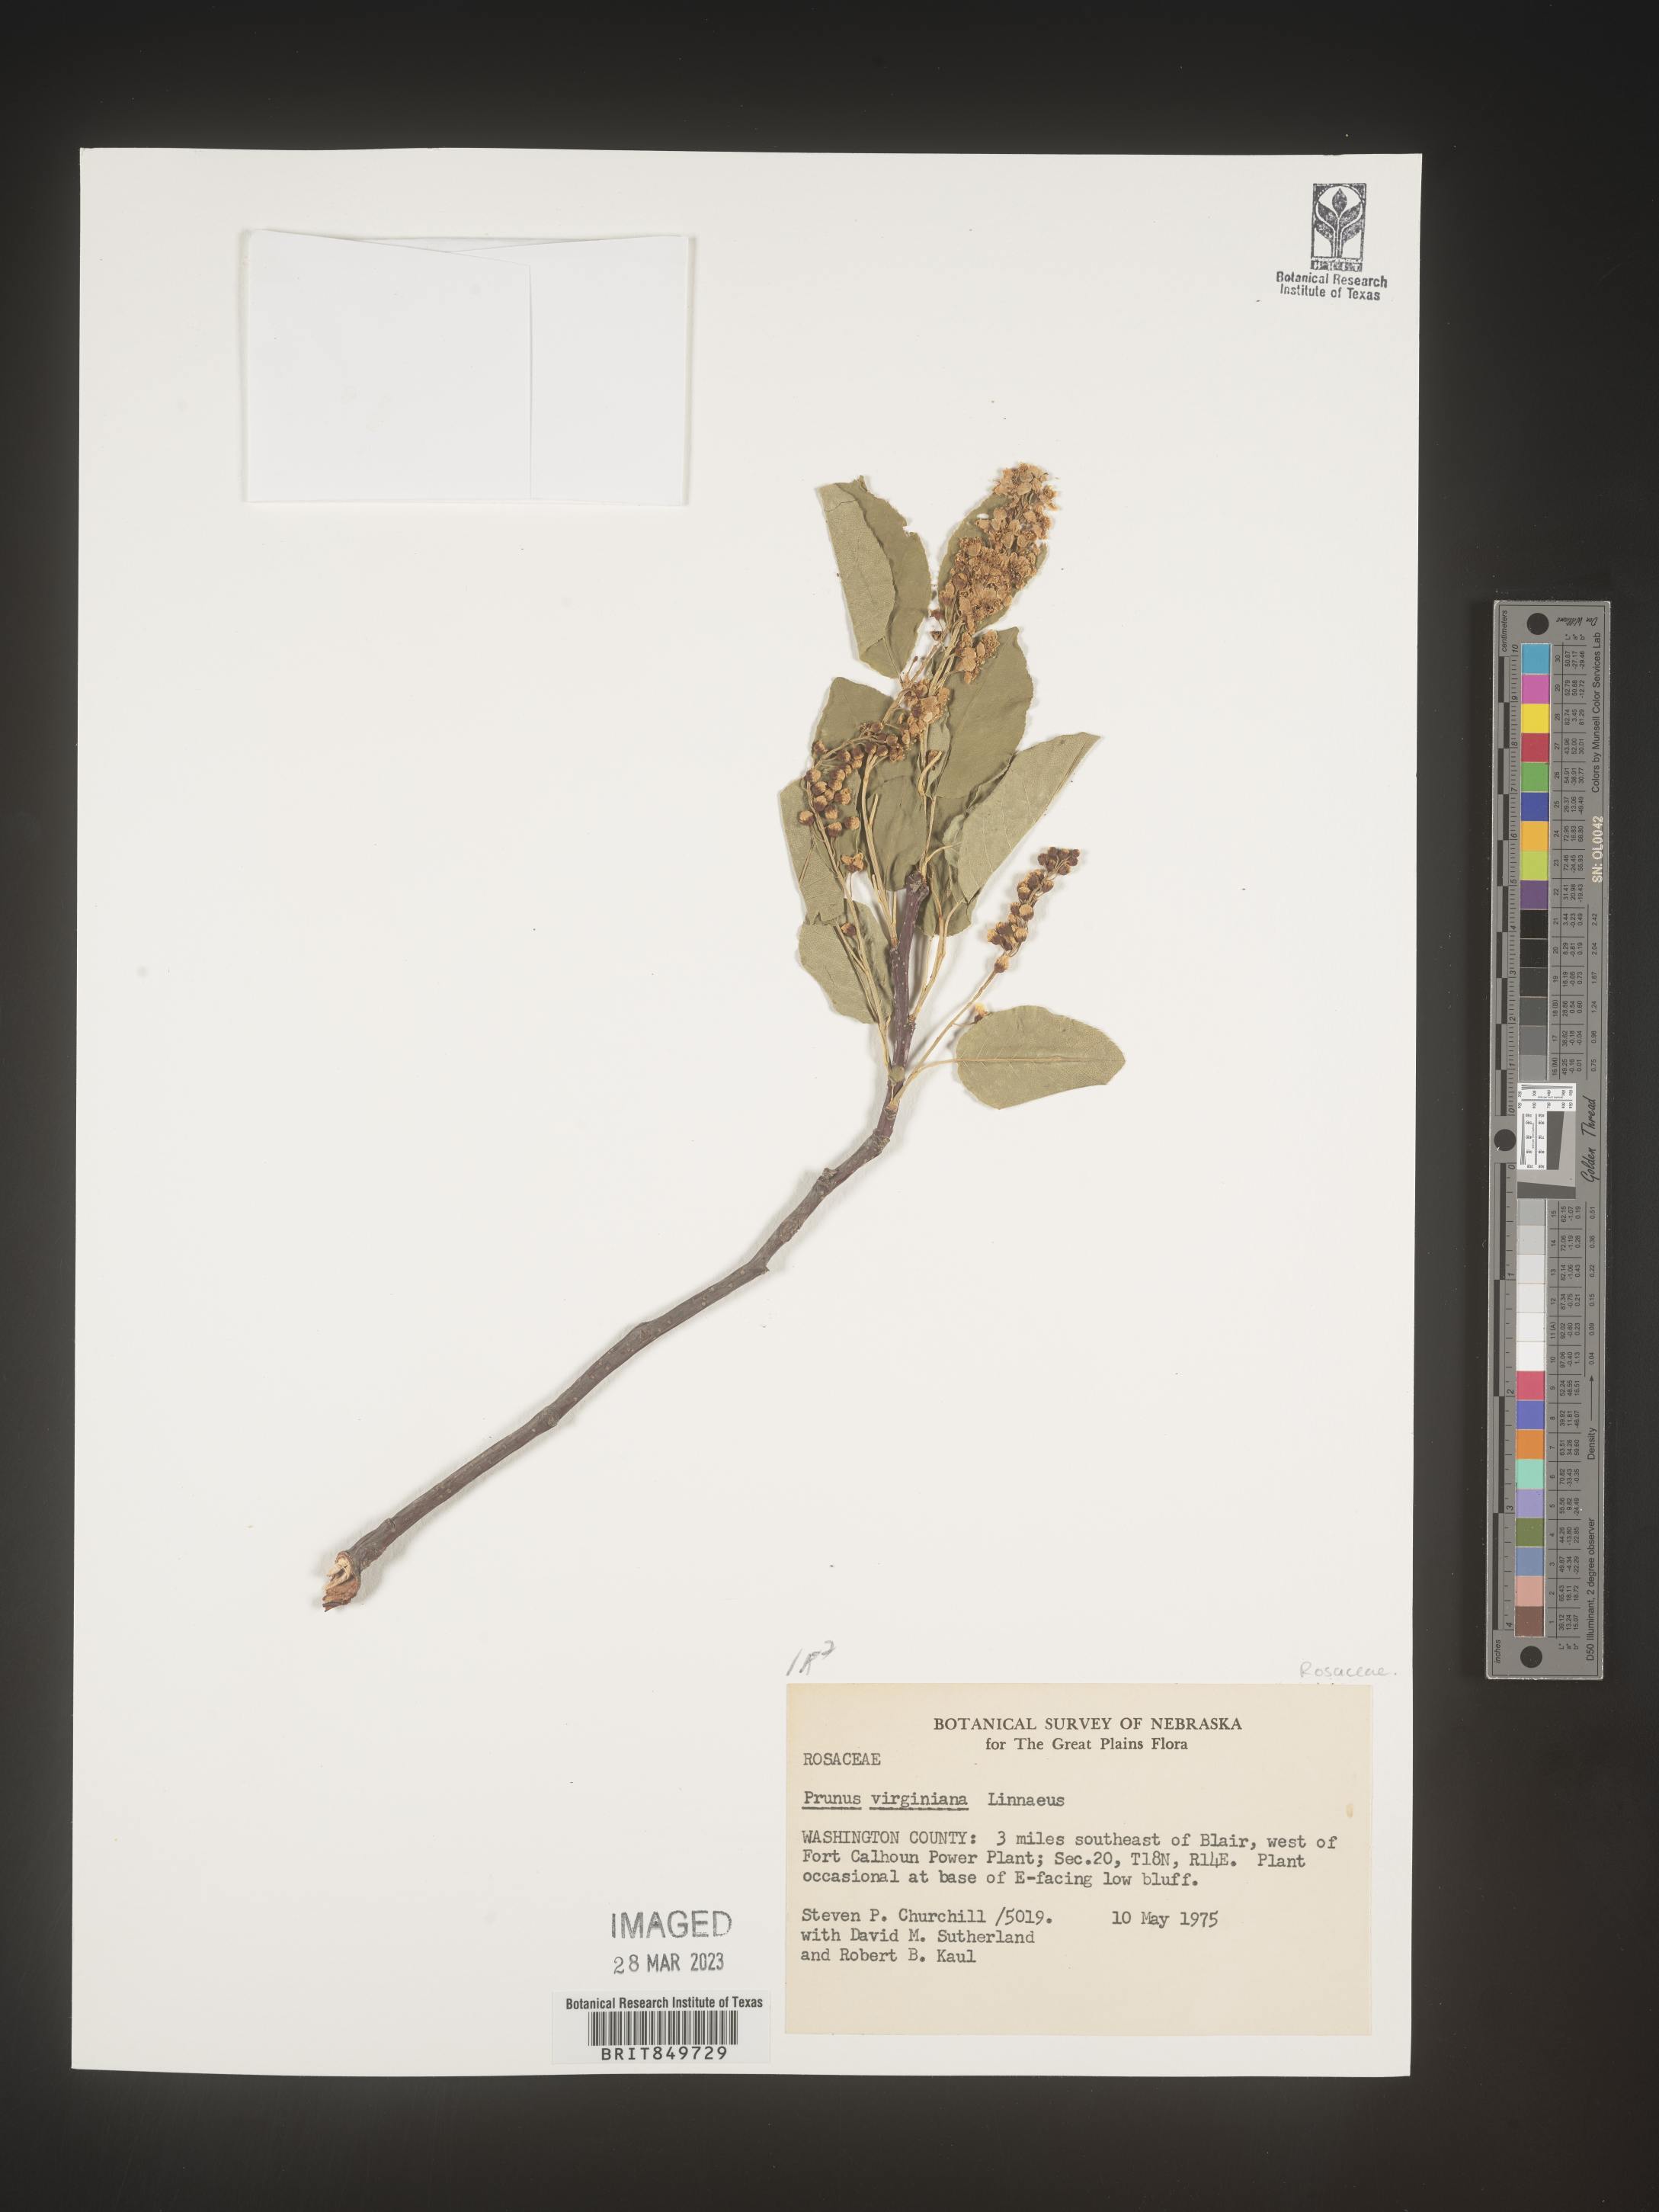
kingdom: Plantae
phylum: Tracheophyta
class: Magnoliopsida
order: Rosales
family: Rosaceae
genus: Prunus
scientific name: Prunus virginiana
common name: Chokecherry
